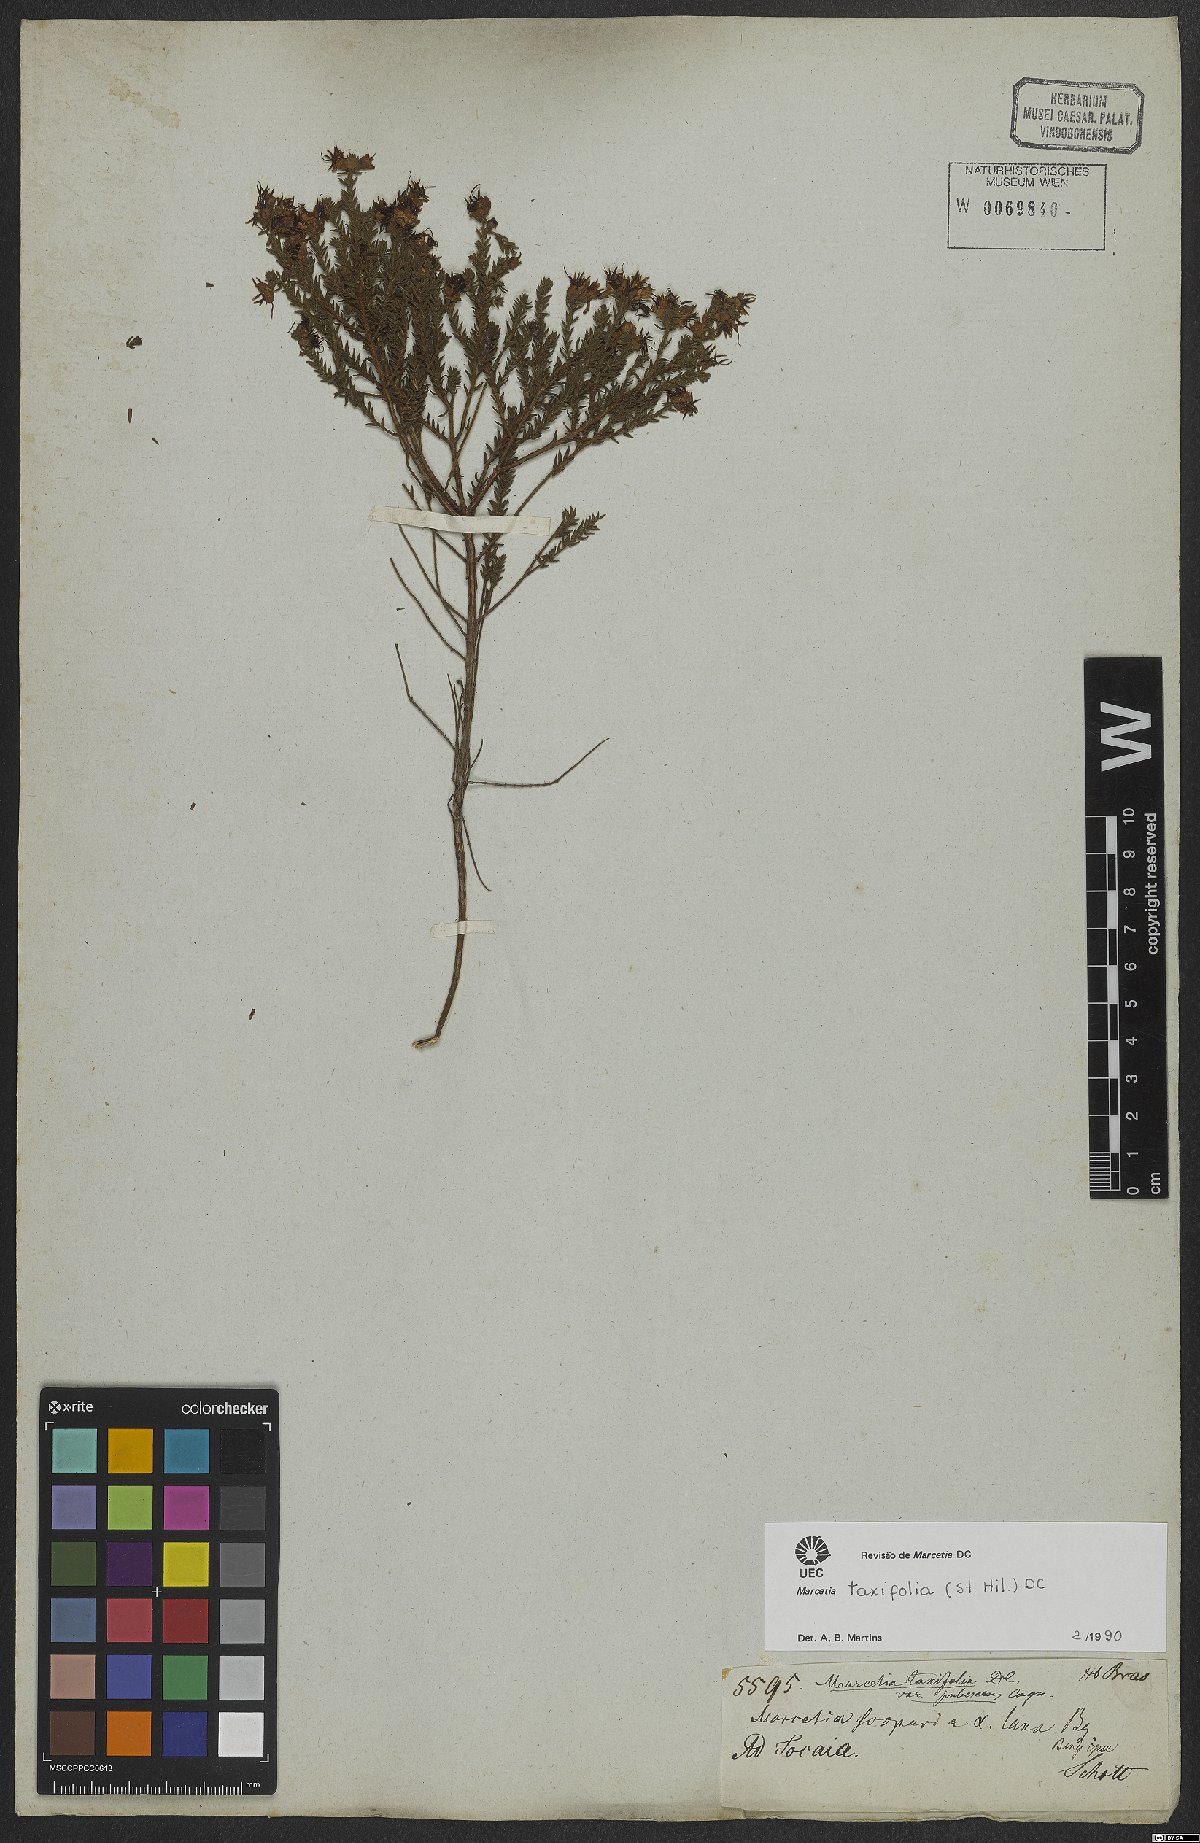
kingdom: Plantae
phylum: Tracheophyta
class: Magnoliopsida
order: Myrtales
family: Melastomataceae
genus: Marcetia
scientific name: Marcetia taxifolia
